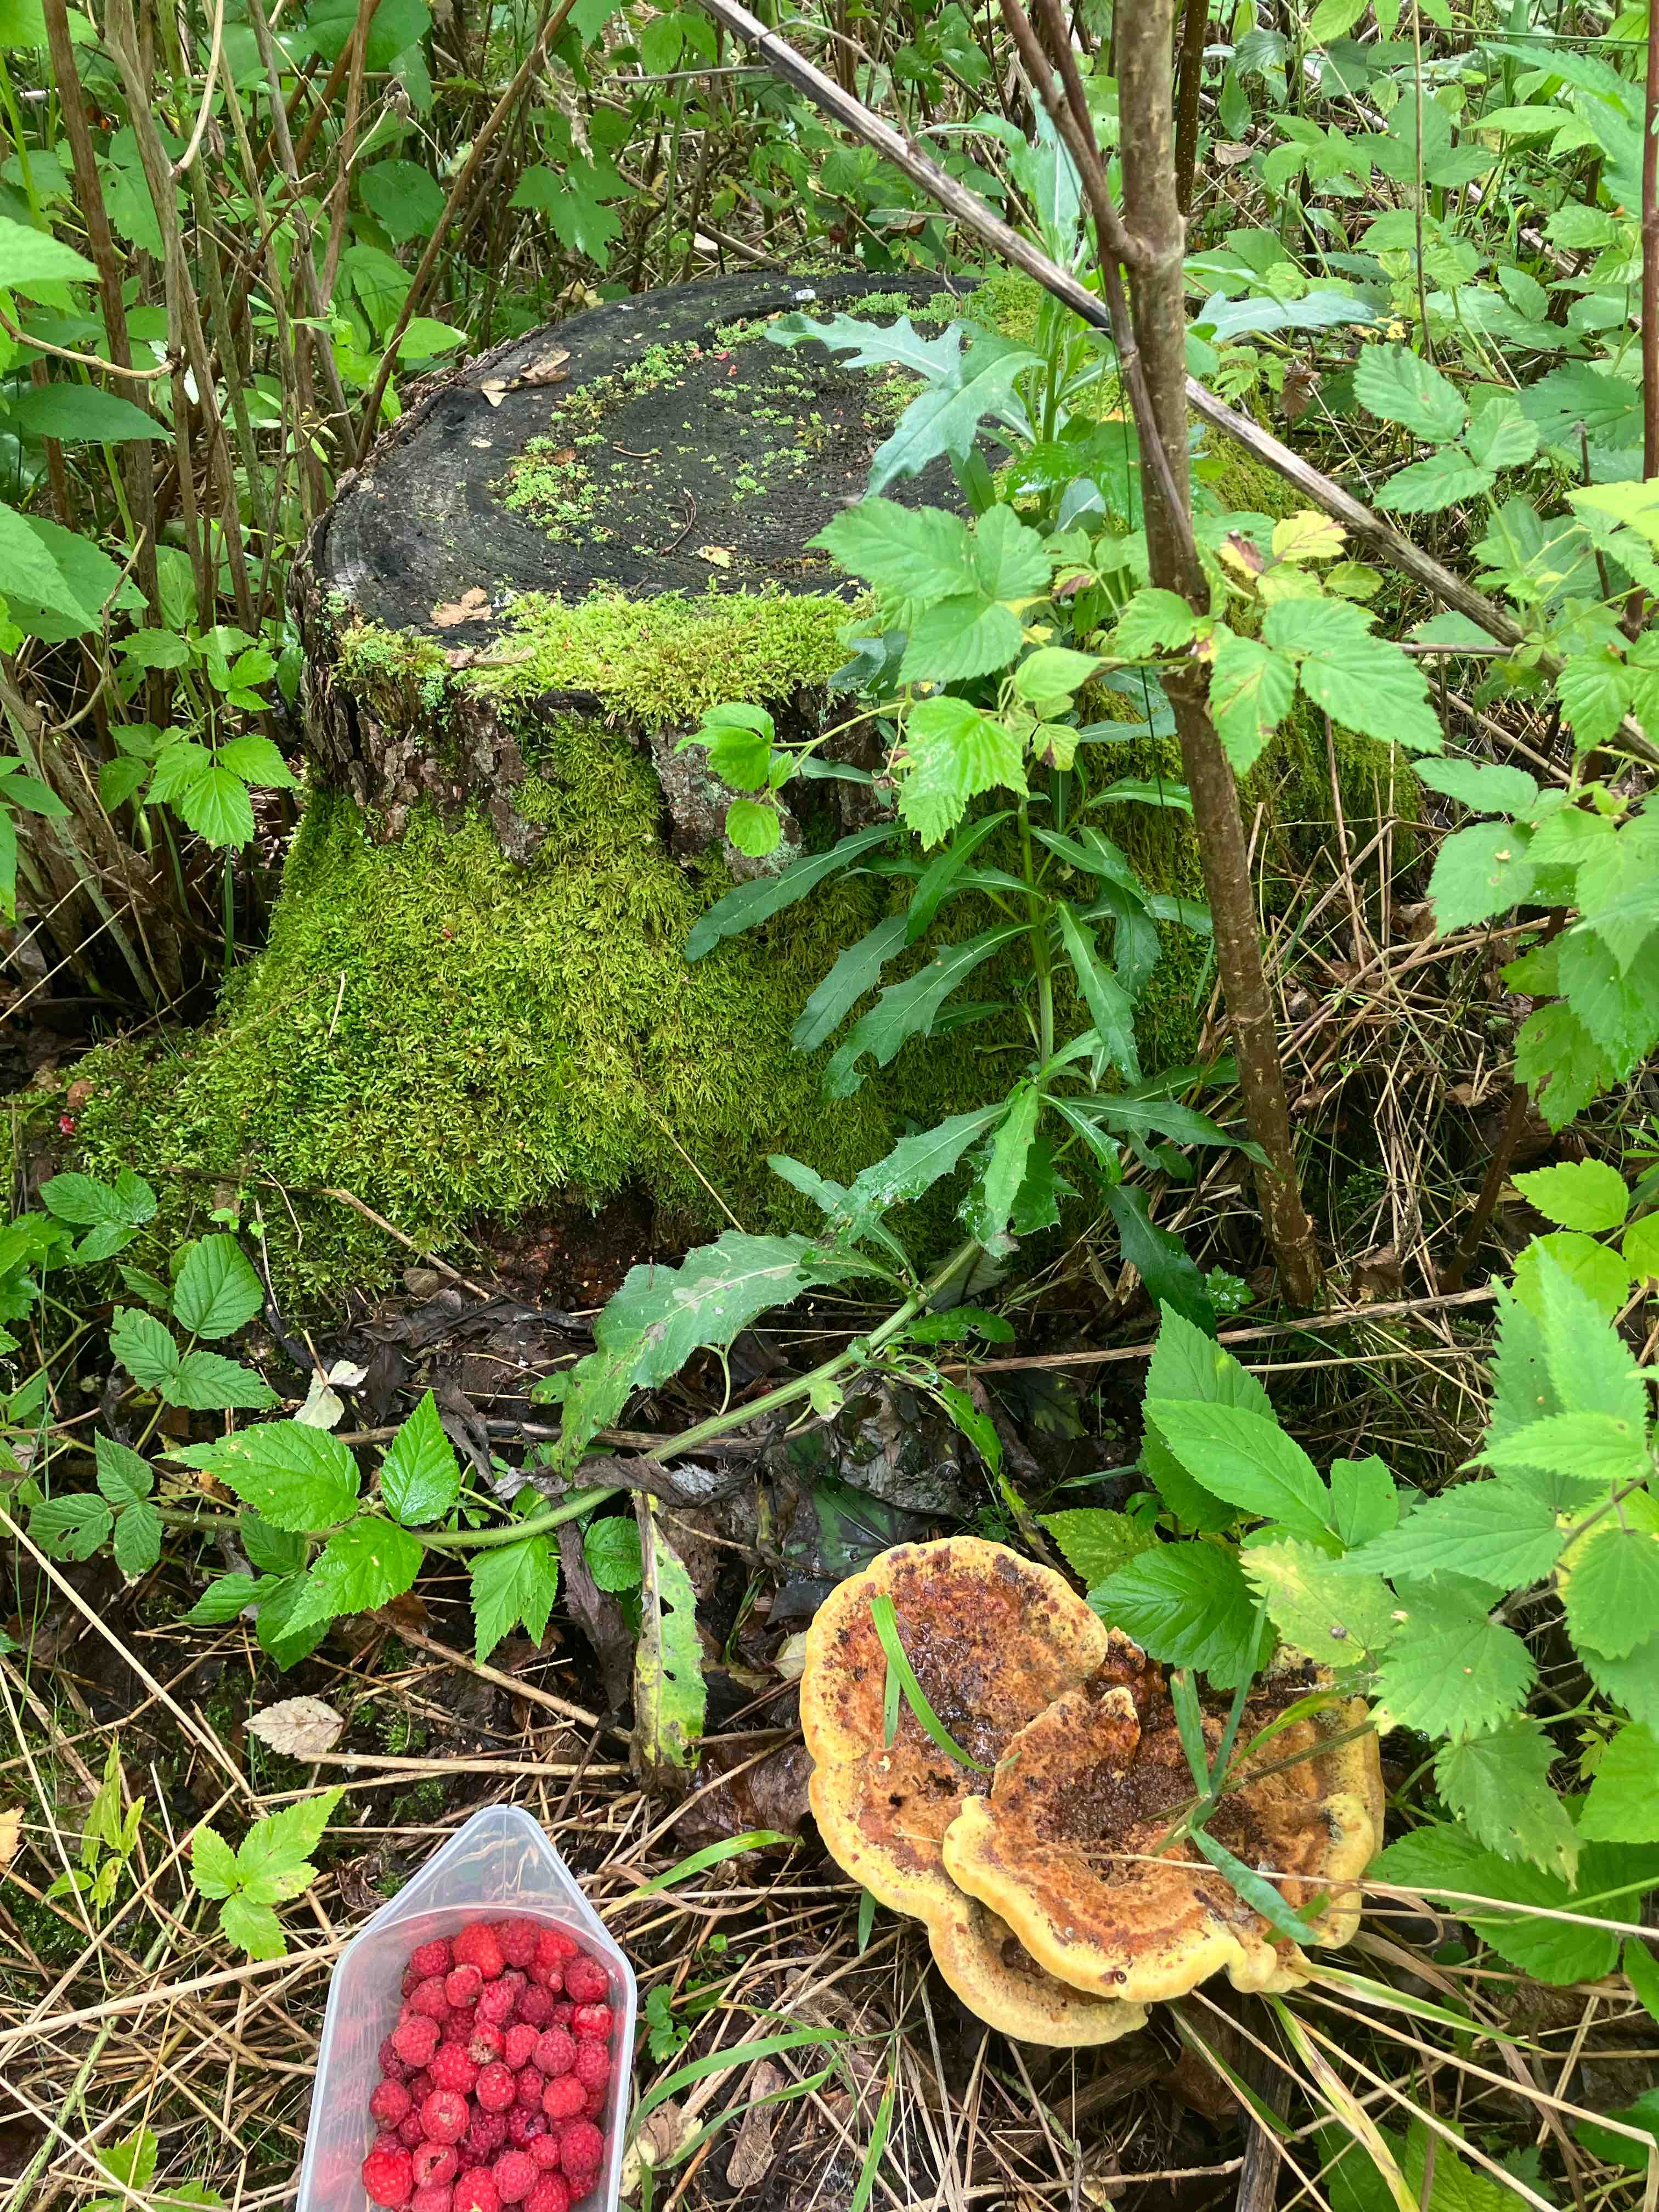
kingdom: Fungi
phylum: Basidiomycota
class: Agaricomycetes
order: Polyporales
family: Laetiporaceae
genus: Phaeolus
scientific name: Phaeolus schweinitzii
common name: brunporesvamp
